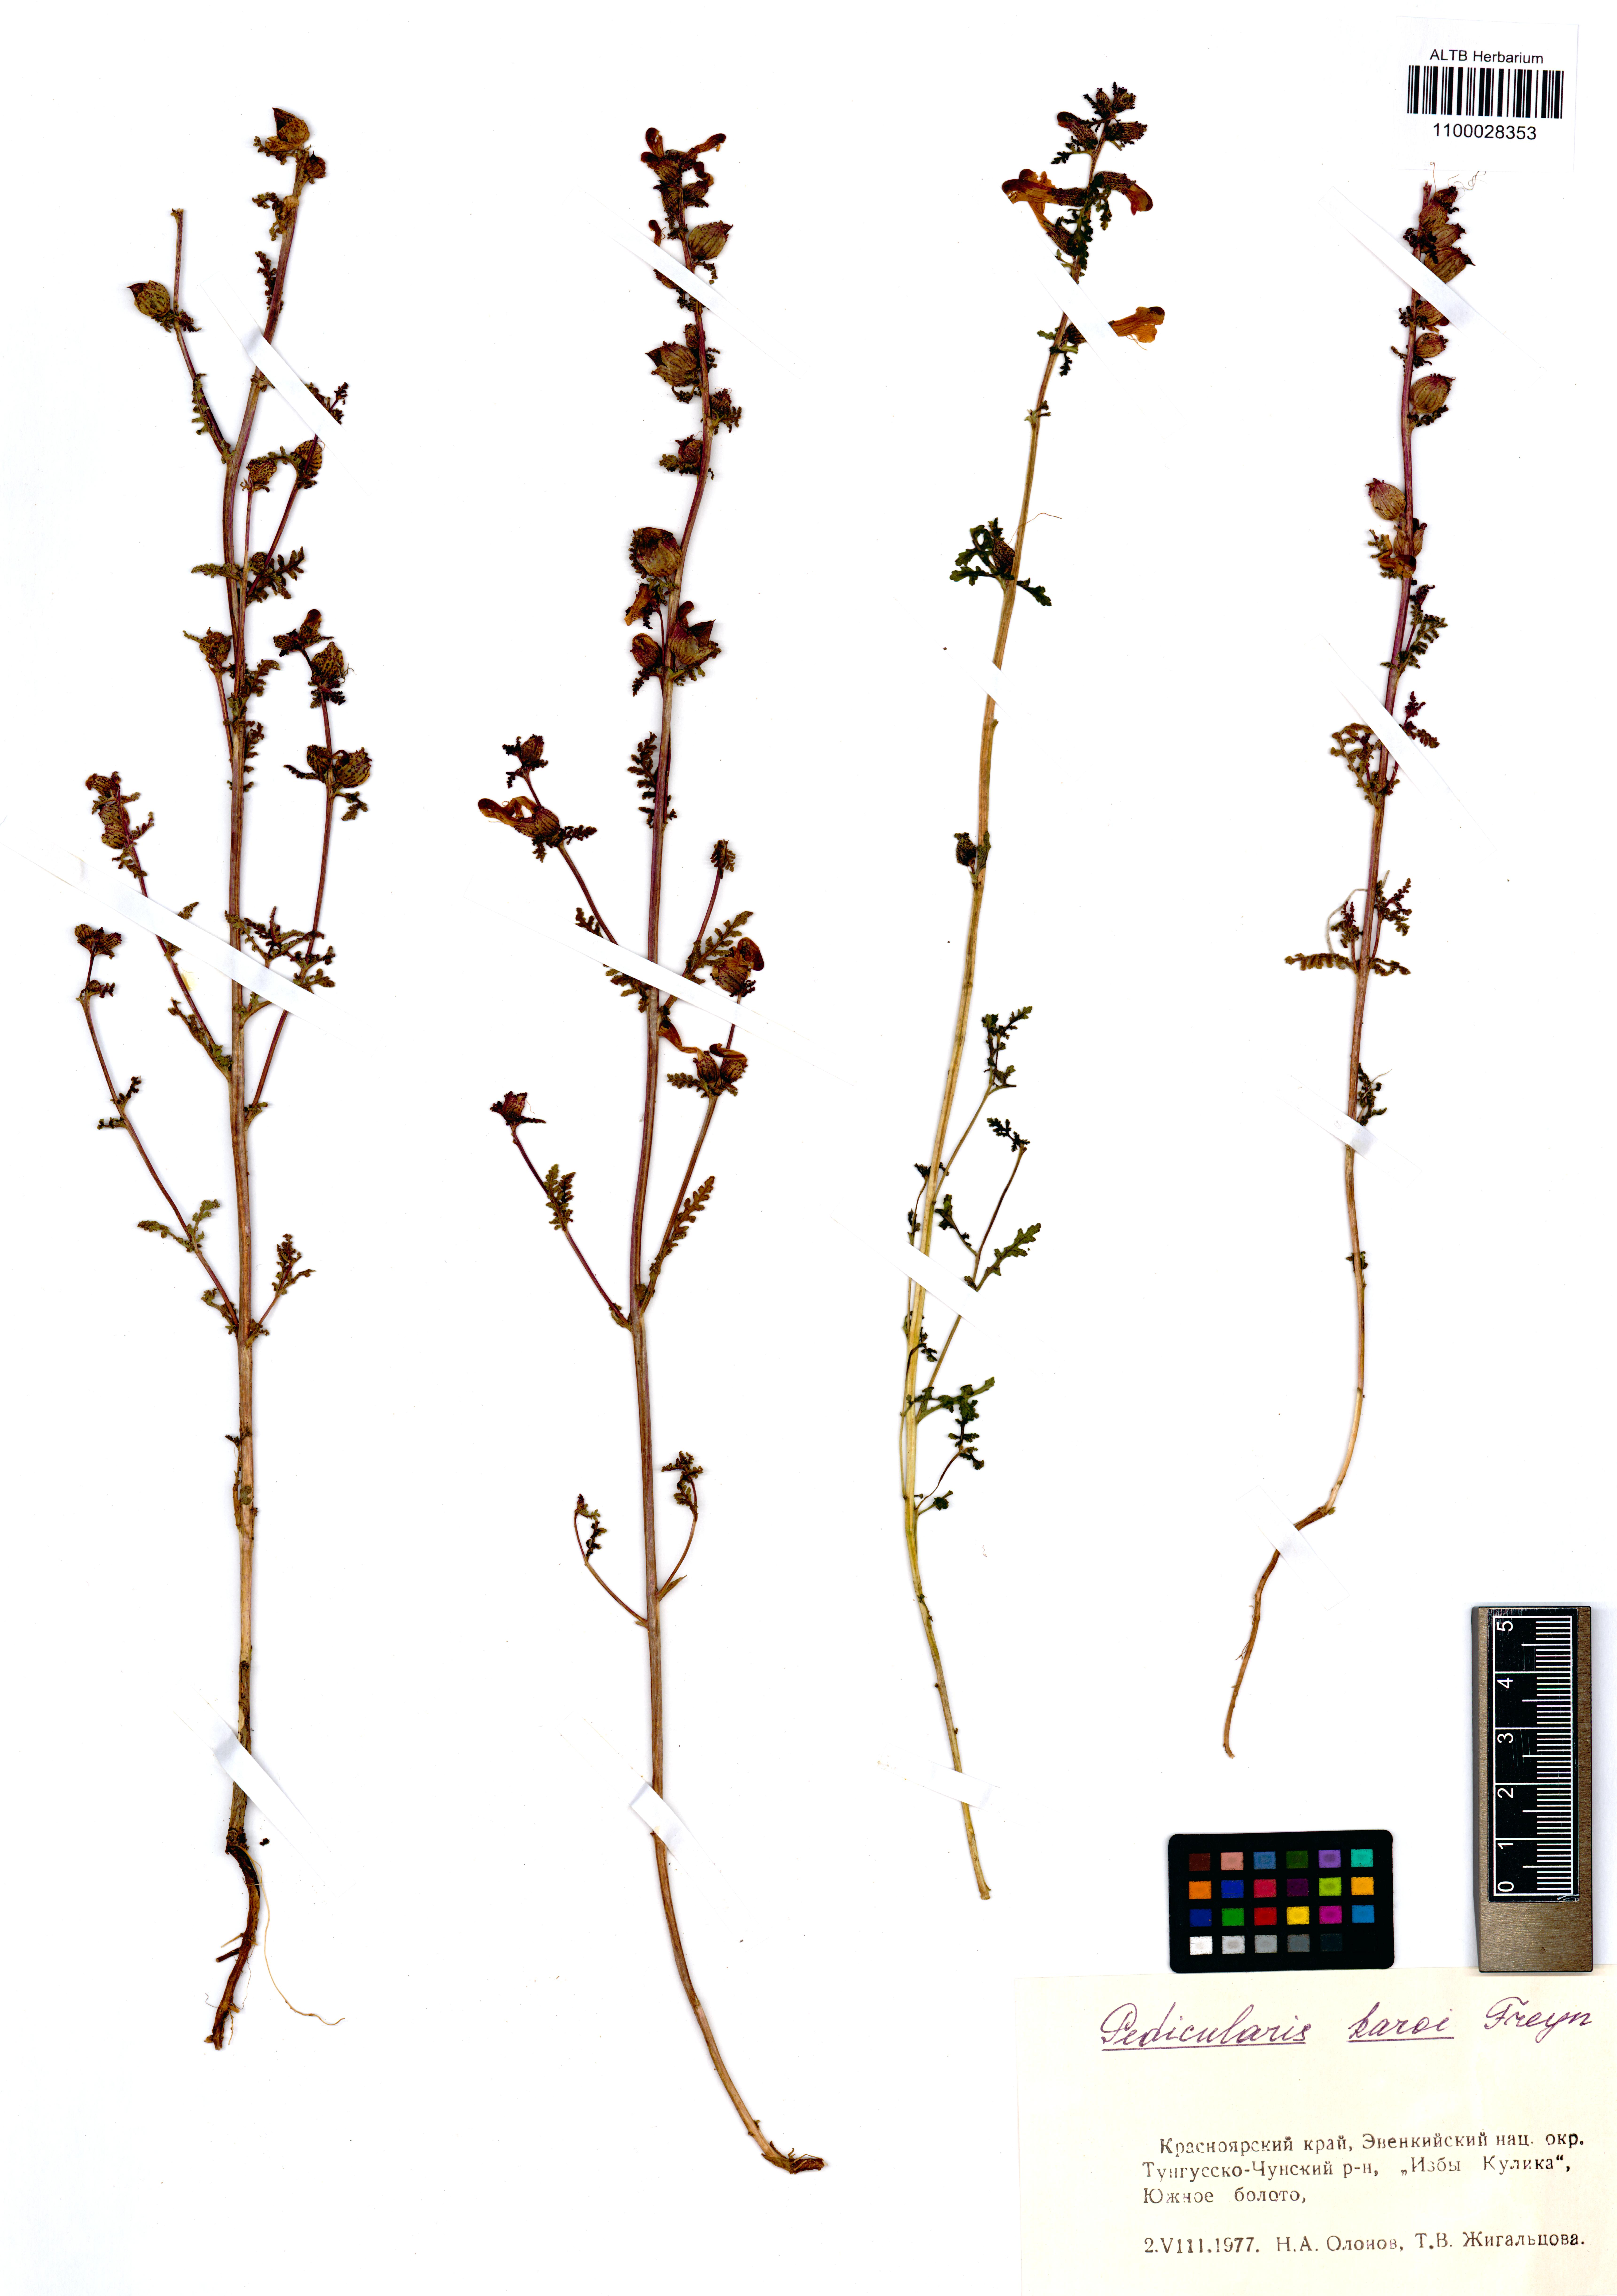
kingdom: Plantae
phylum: Tracheophyta
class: Magnoliopsida
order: Lamiales
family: Orobanchaceae
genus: Pedicularis
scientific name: Pedicularis karoi
